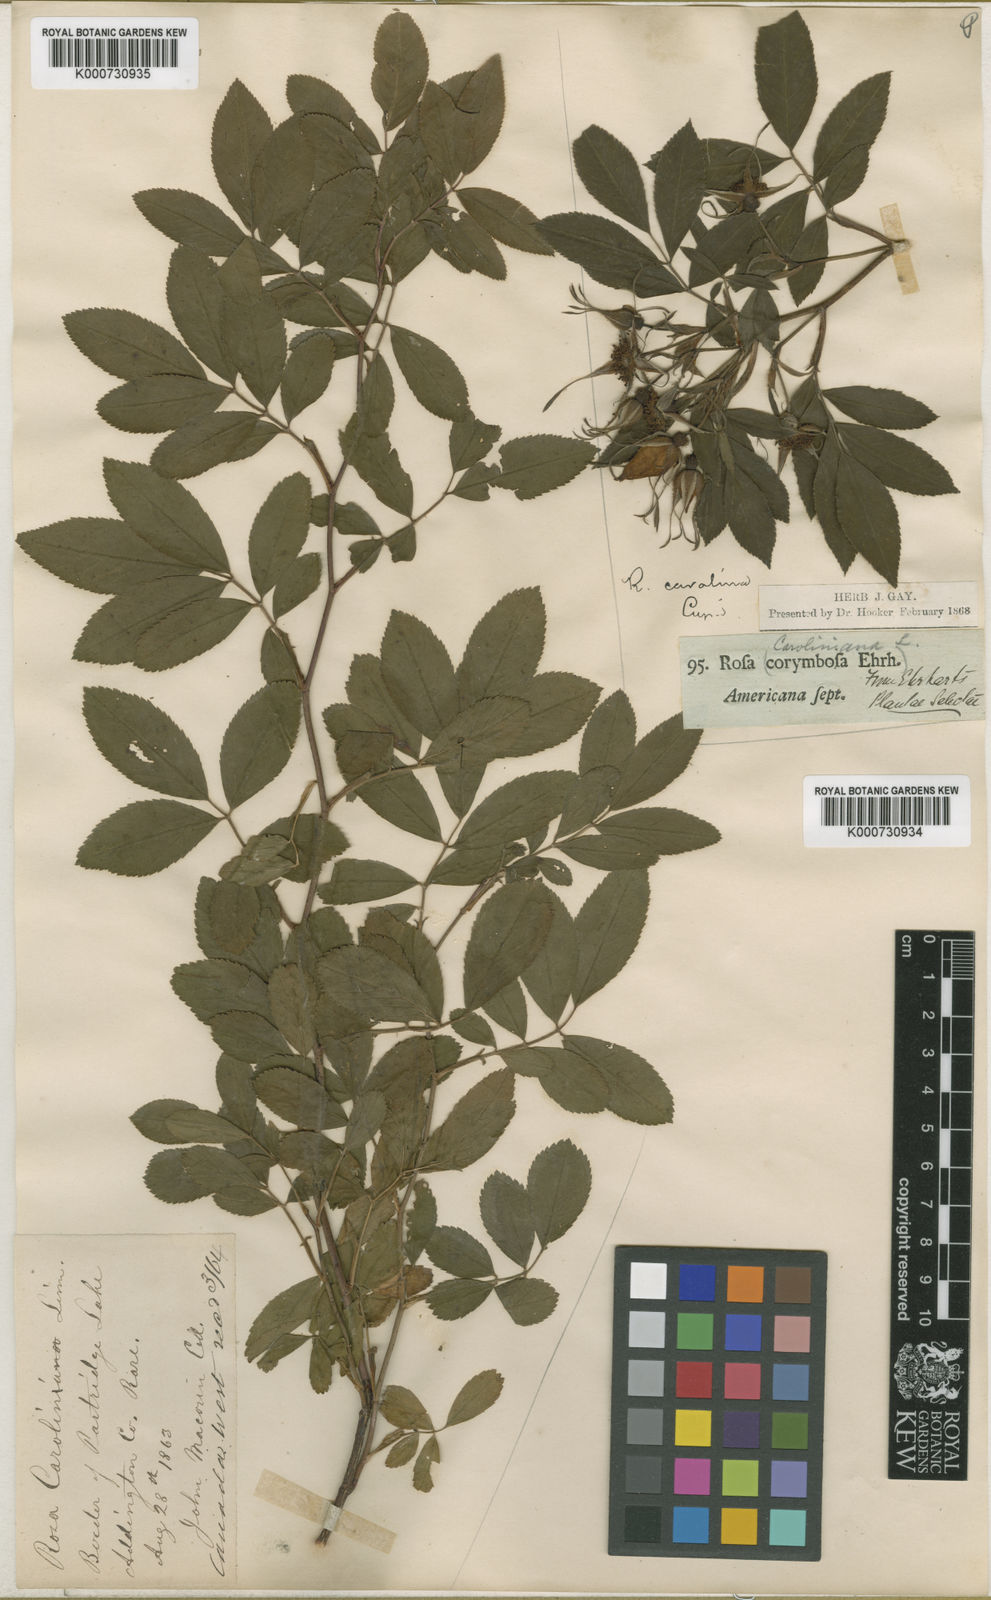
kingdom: Plantae
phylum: Tracheophyta
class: Magnoliopsida
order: Rosales
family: Rosaceae
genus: Rosa
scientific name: Rosa palustris
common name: Swamp rose
